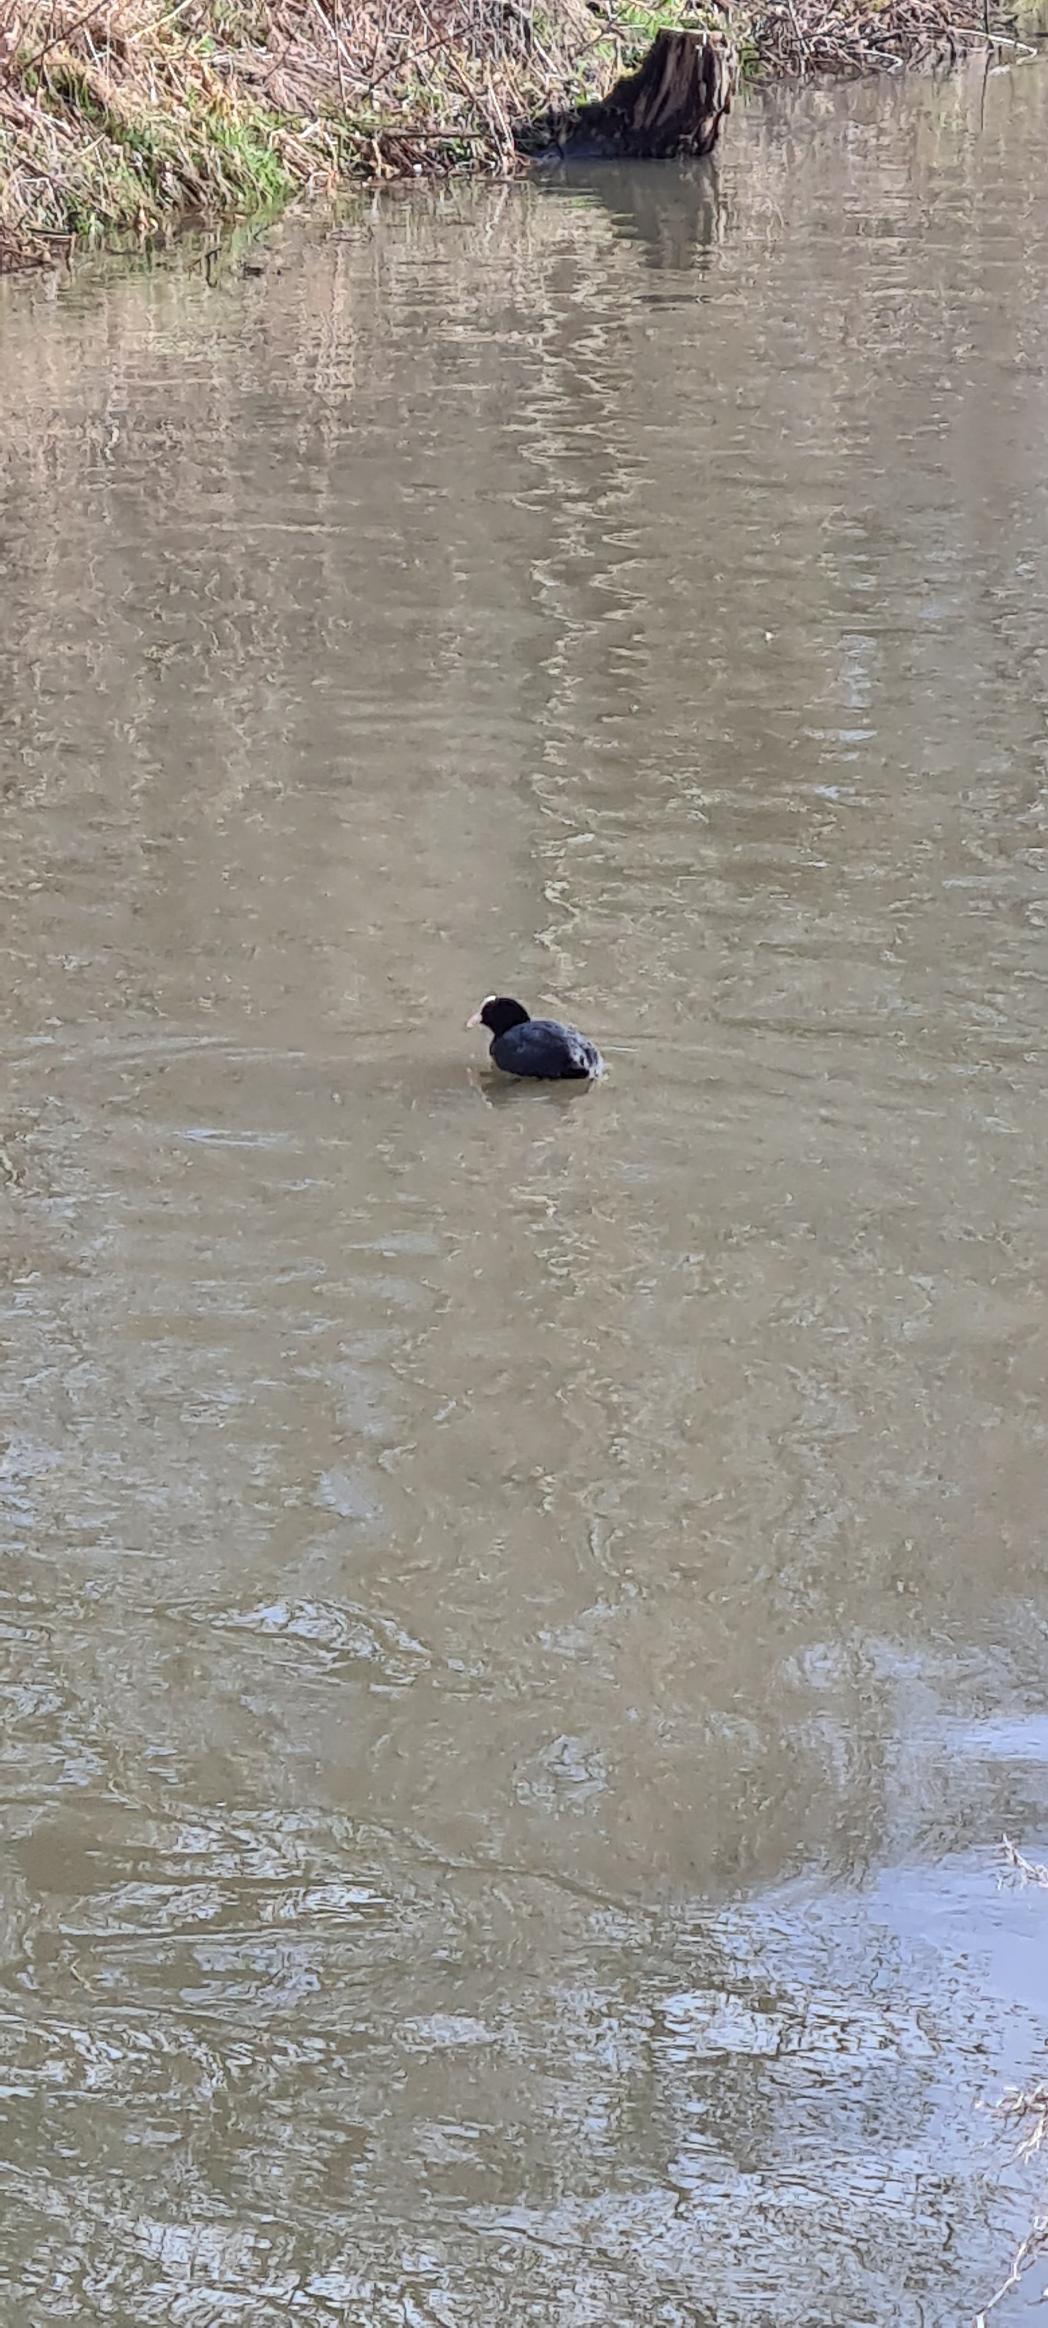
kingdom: Animalia
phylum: Chordata
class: Aves
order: Gruiformes
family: Rallidae
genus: Fulica
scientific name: Fulica atra
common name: Blishøne
